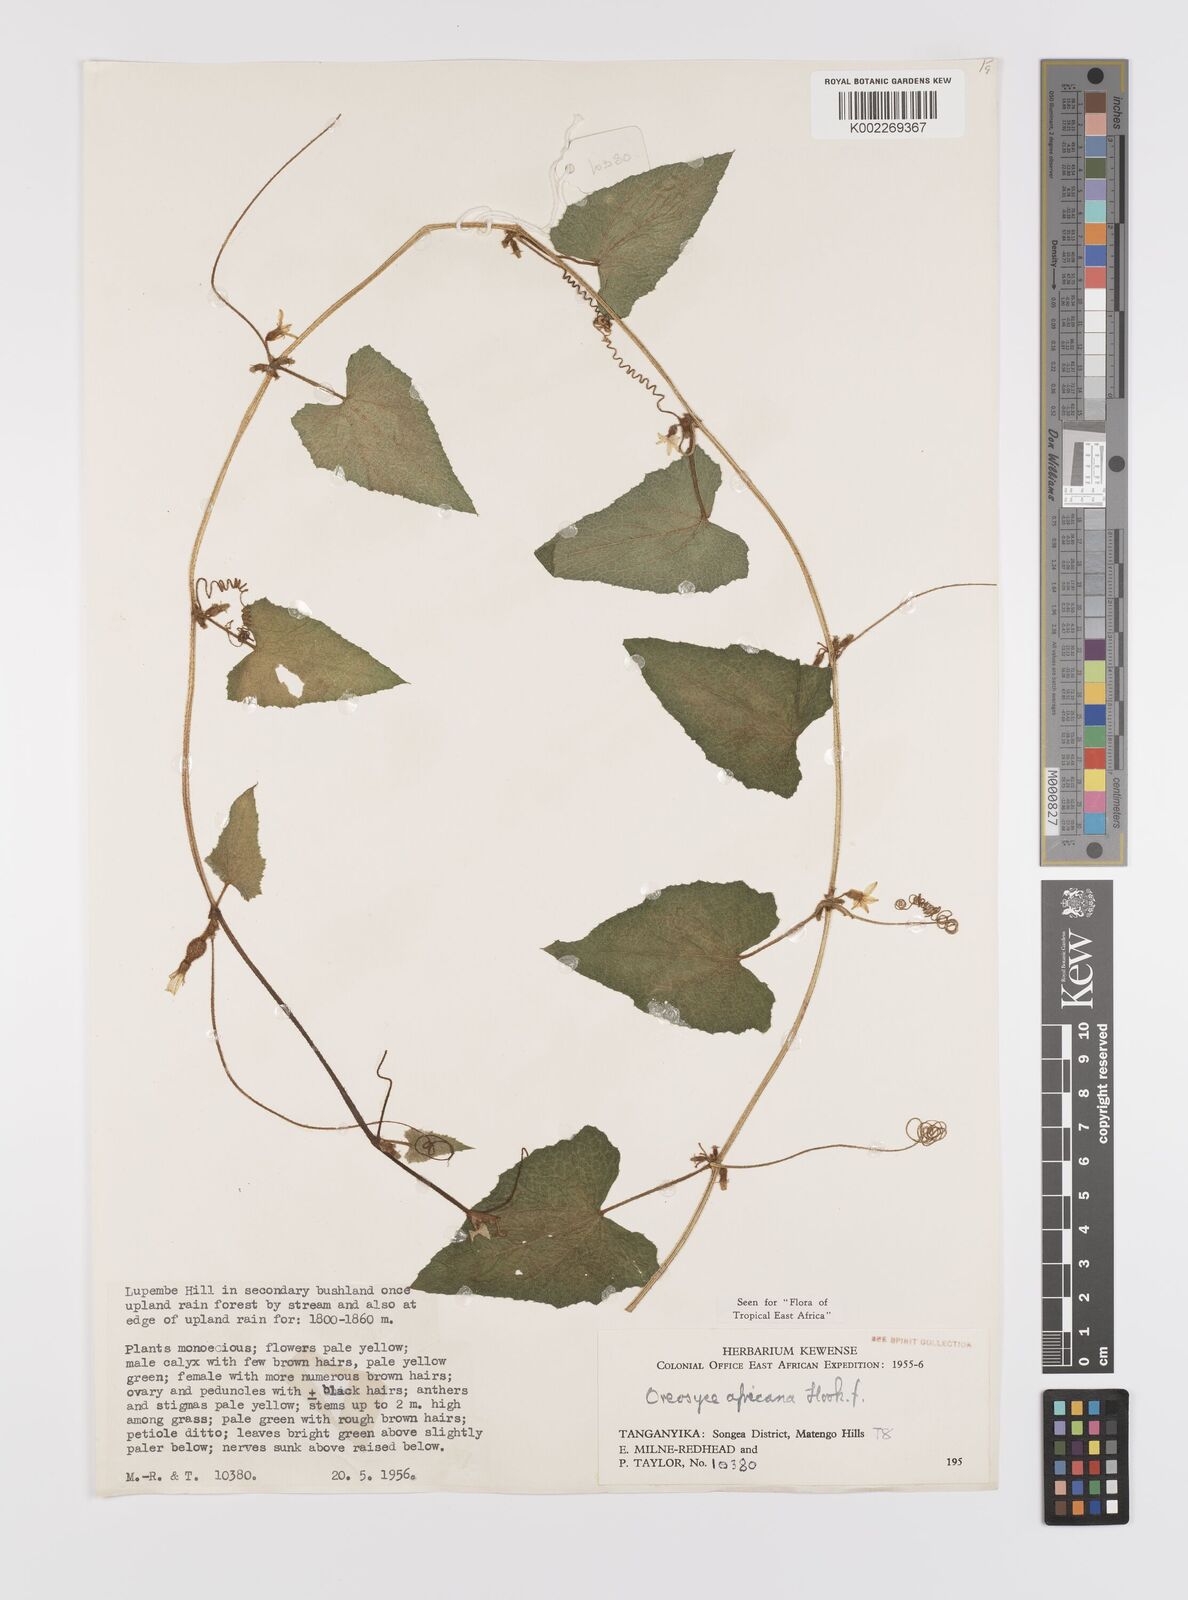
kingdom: Plantae
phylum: Tracheophyta
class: Magnoliopsida
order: Cucurbitales
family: Cucurbitaceae
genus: Cucumis
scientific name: Cucumis oreosyce
